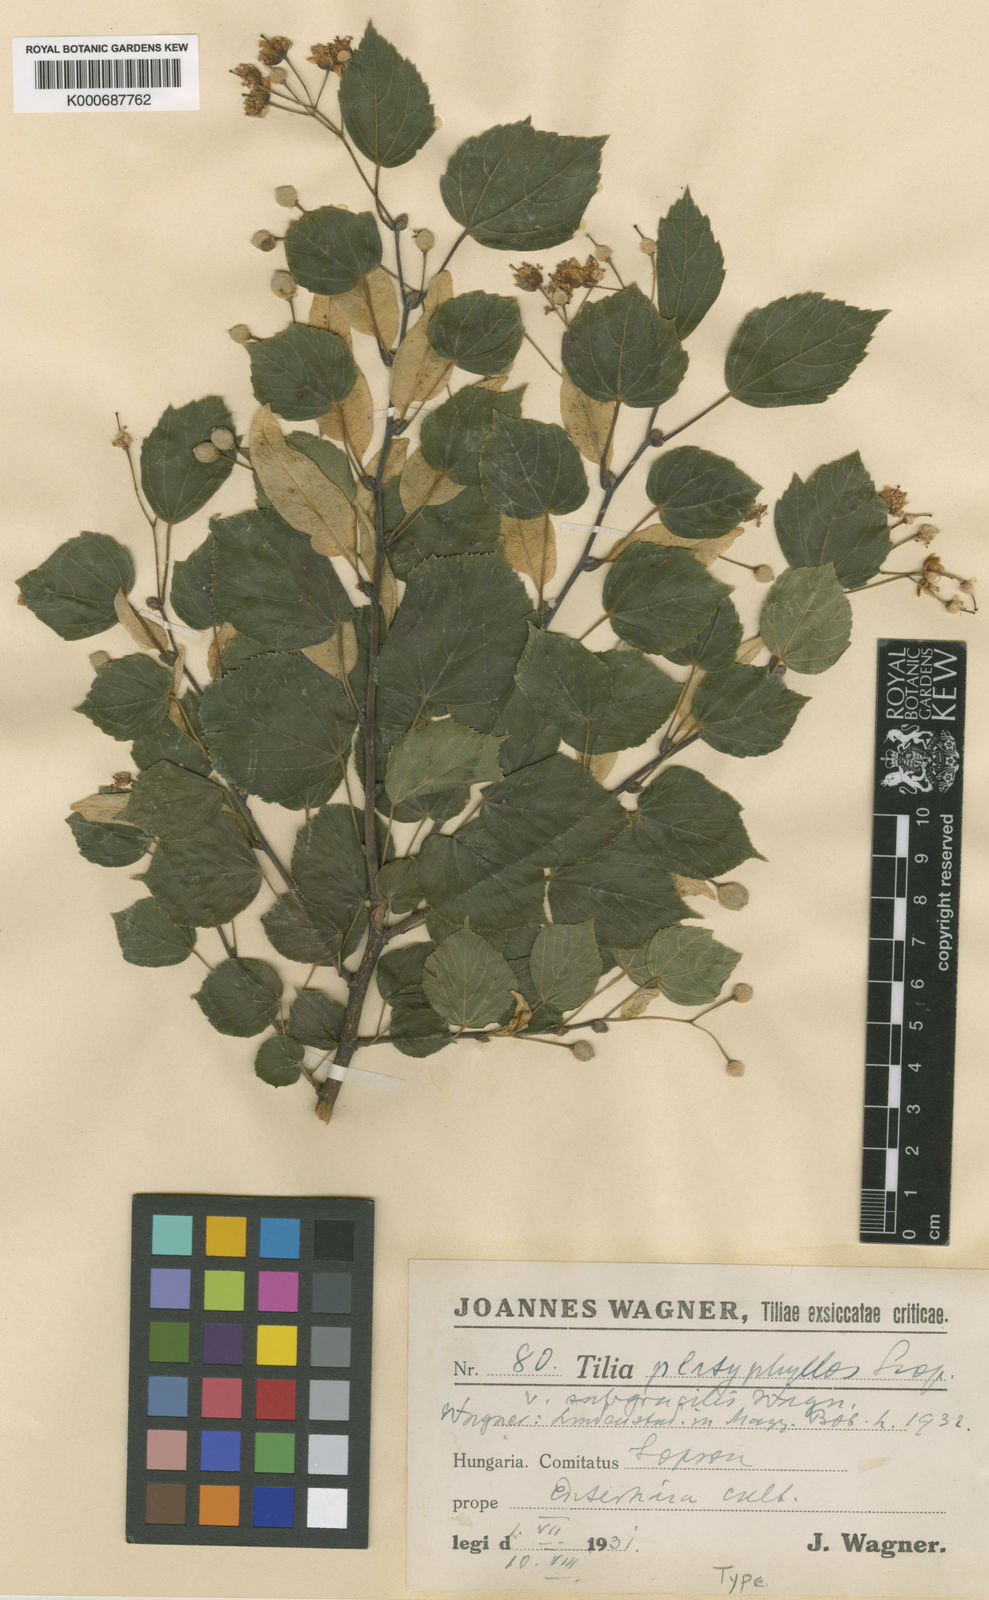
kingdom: Plantae
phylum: Tracheophyta
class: Magnoliopsida
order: Malvales
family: Malvaceae
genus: Tilia
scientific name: Tilia platyphyllos
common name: Large-leaved lime
